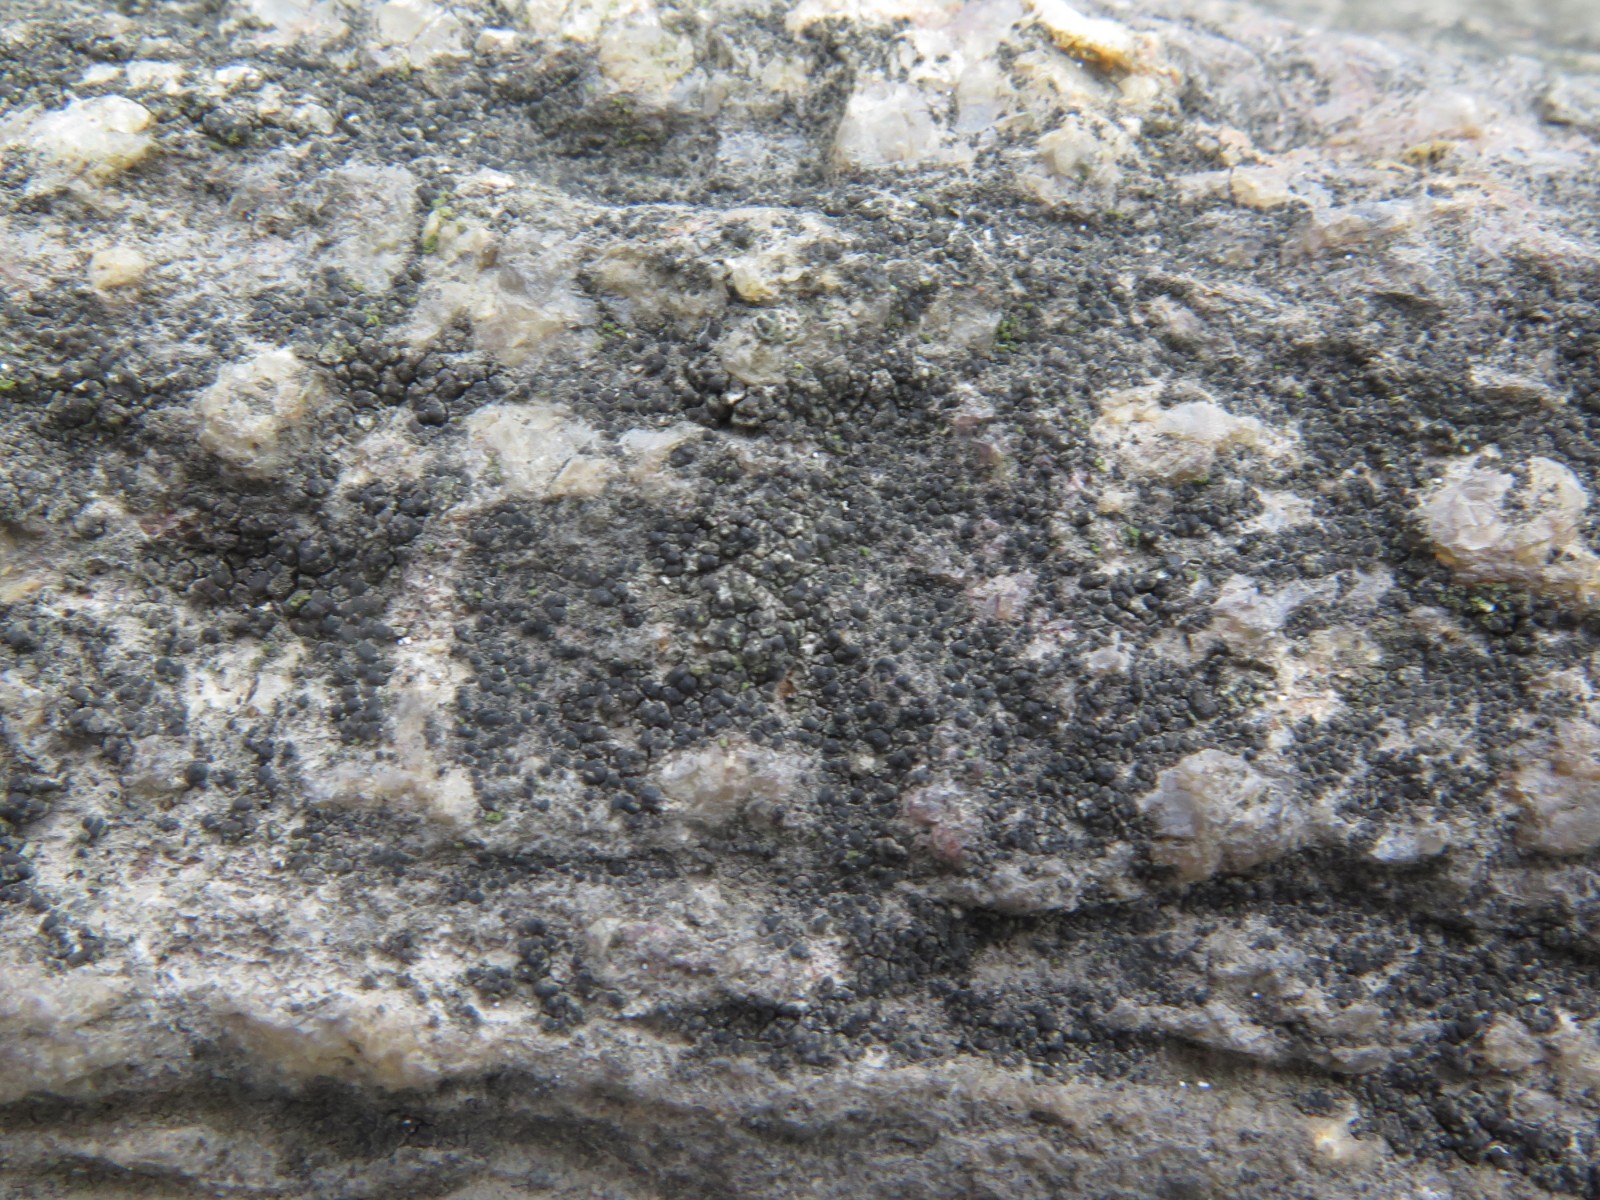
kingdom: Fungi
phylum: Ascomycota
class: Lecanoromycetes
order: Acarosporales
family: Acarosporaceae
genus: Acarospora
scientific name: Acarospora fuscata
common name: brun småsporelav
